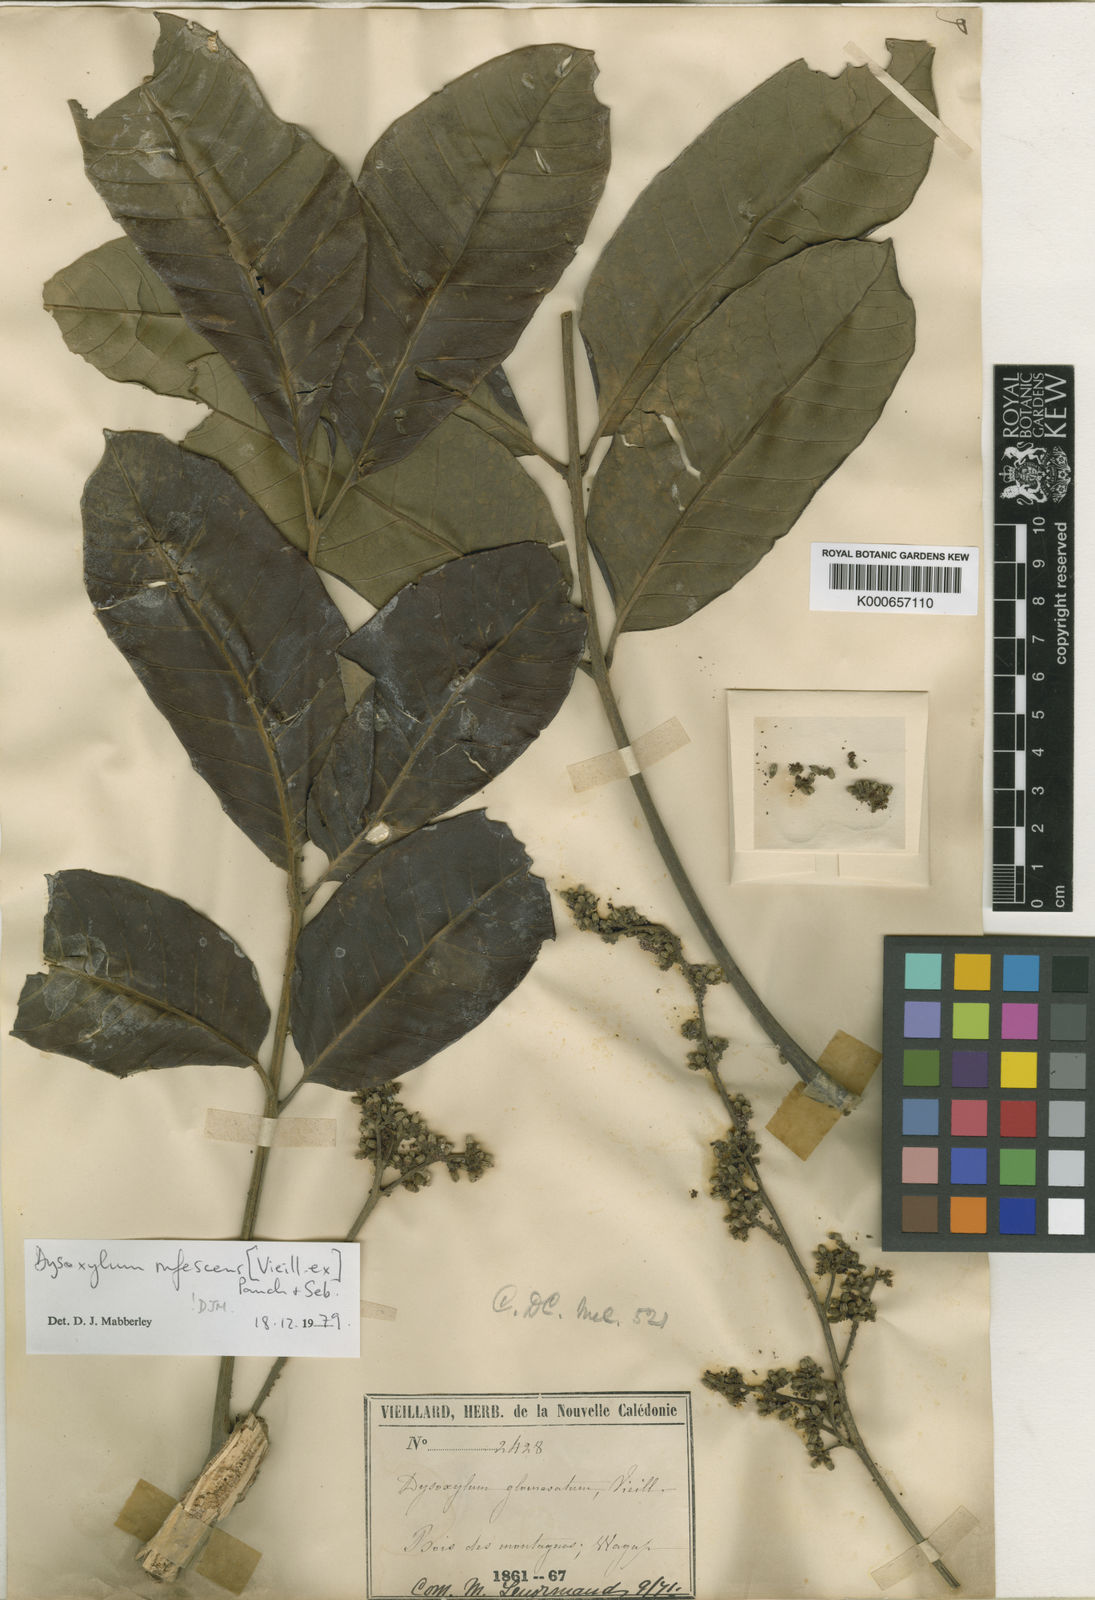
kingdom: Plantae
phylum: Tracheophyta
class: Magnoliopsida
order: Sapindales
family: Meliaceae
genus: Didymocheton
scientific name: Didymocheton rufescens
